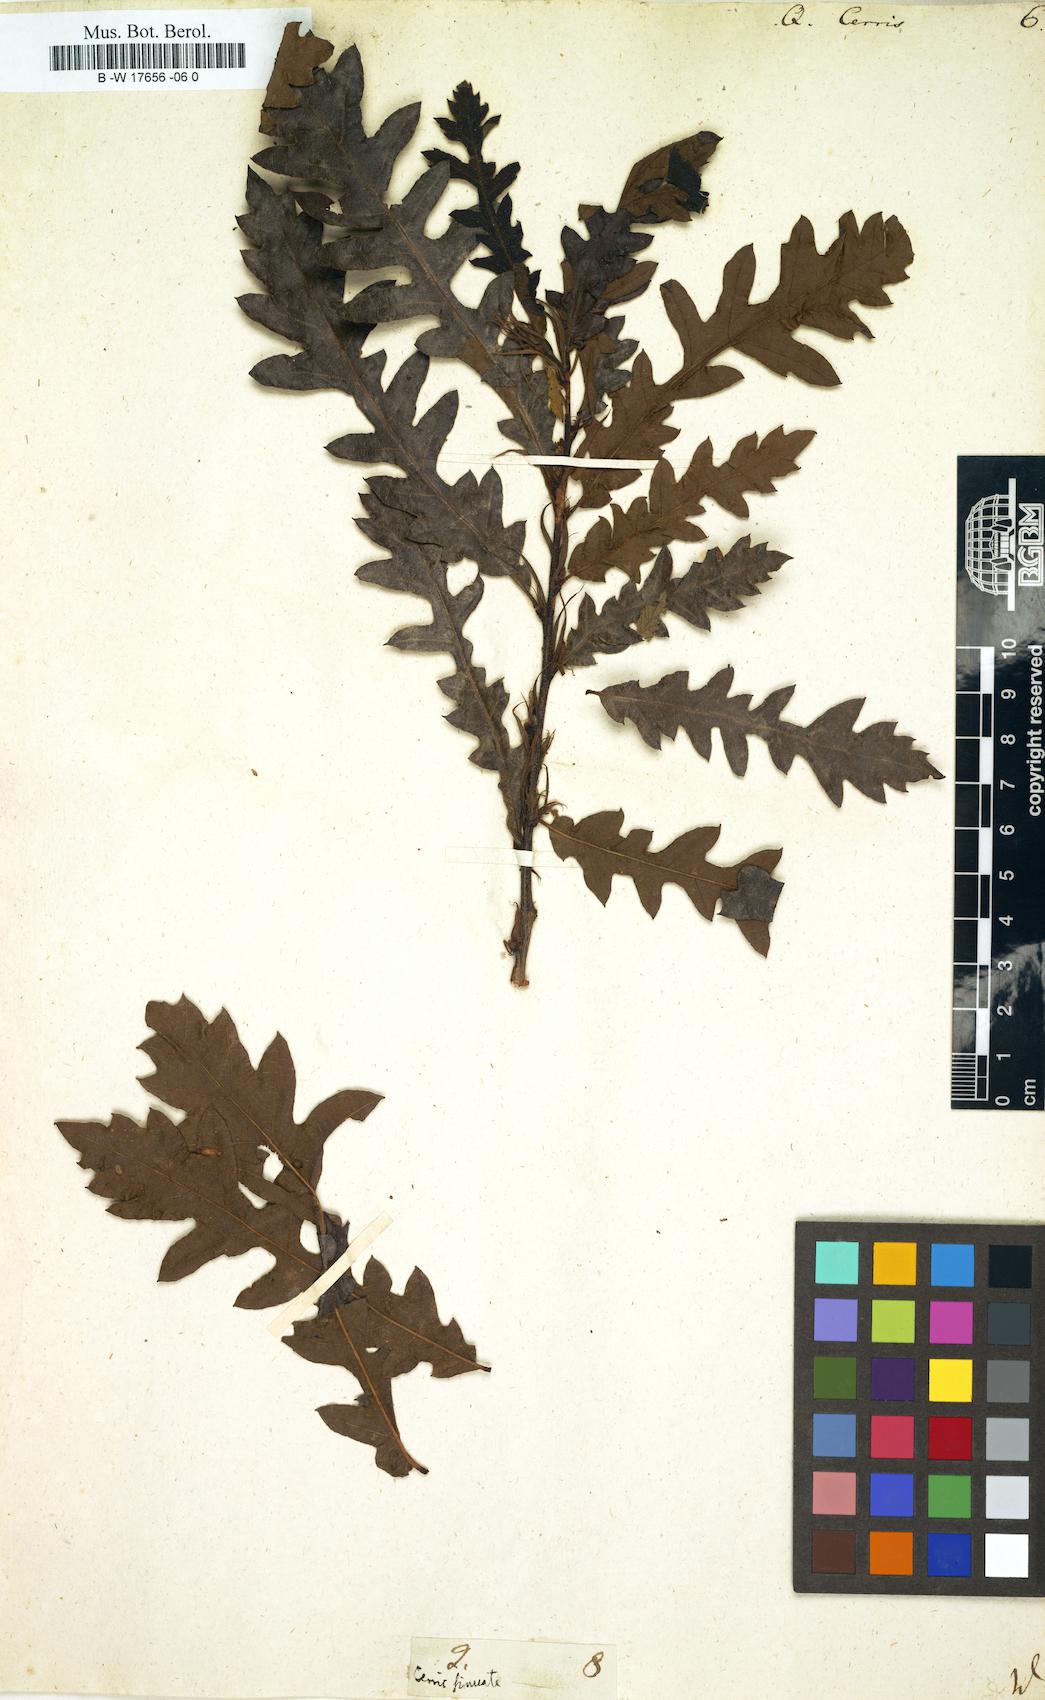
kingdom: Plantae
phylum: Tracheophyta
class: Magnoliopsida
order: Fagales
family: Fagaceae
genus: Quercus
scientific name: Quercus cerris
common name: Turkey oak
